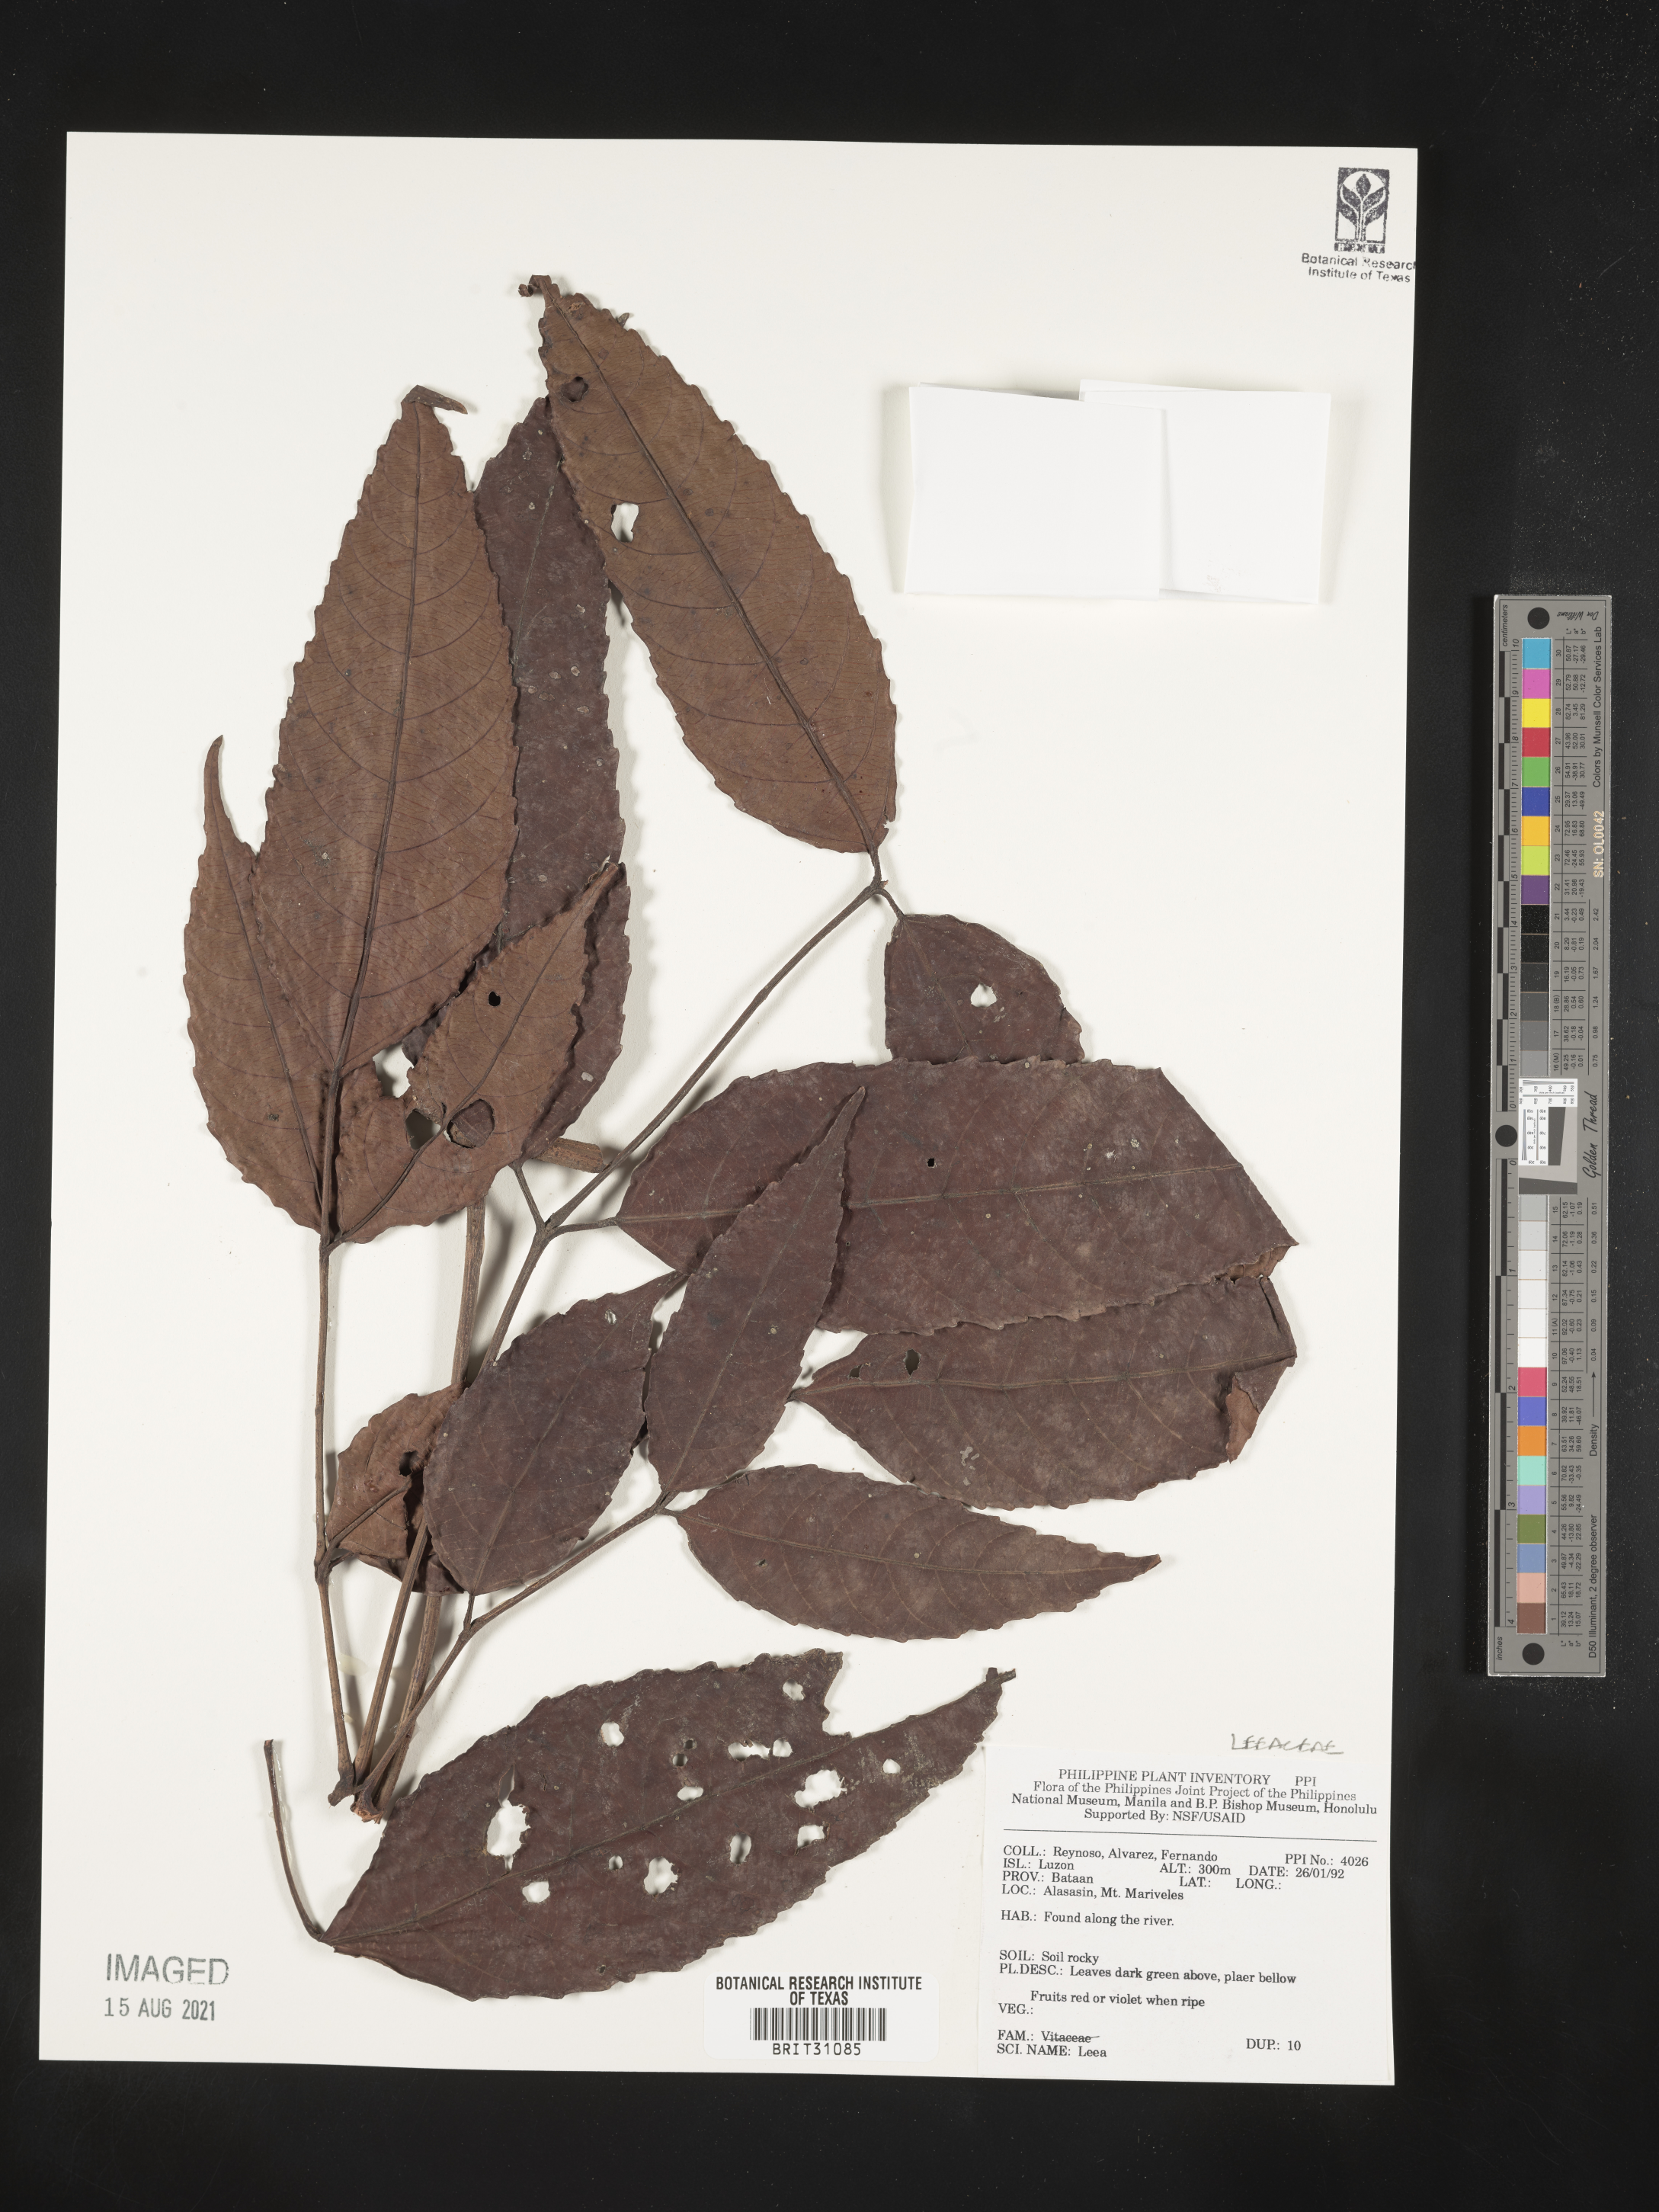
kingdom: Plantae
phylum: Tracheophyta
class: Magnoliopsida
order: Vitales
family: Vitaceae
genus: Leea
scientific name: Leea
